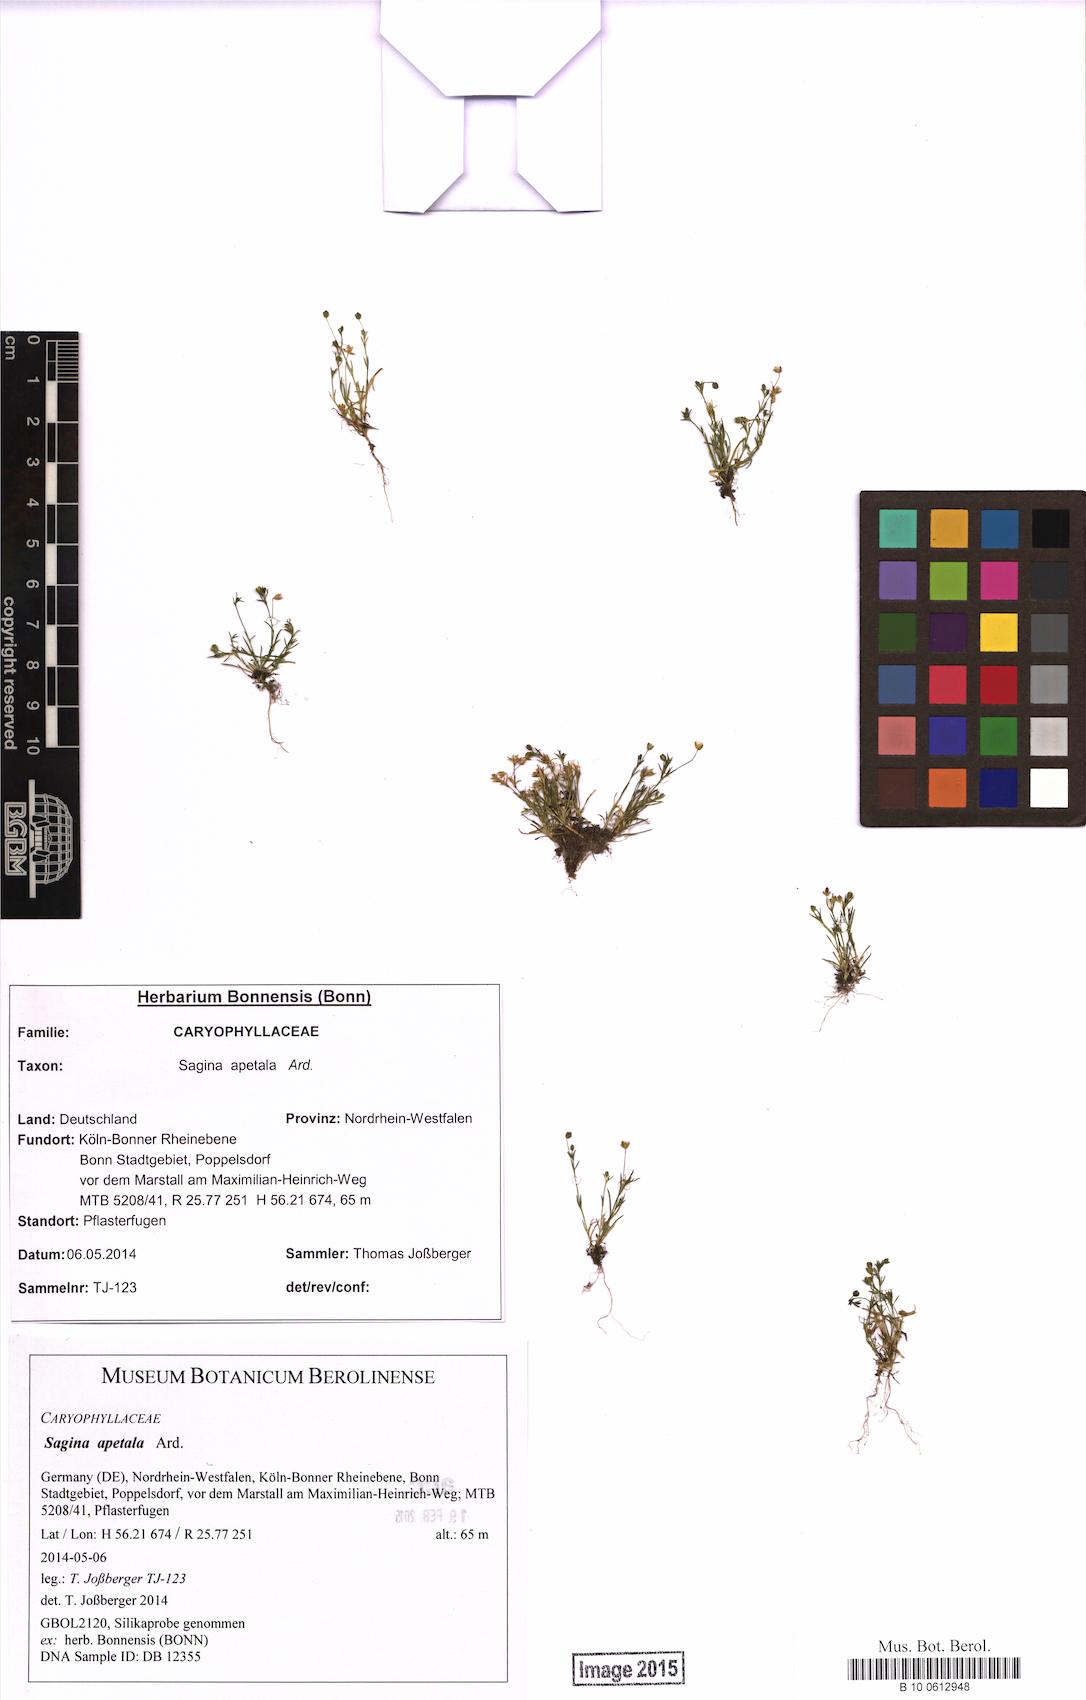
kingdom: Plantae
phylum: Tracheophyta
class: Magnoliopsida
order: Caryophyllales
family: Caryophyllaceae
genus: Sagina
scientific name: Sagina apetala
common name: Annual pearlwort
